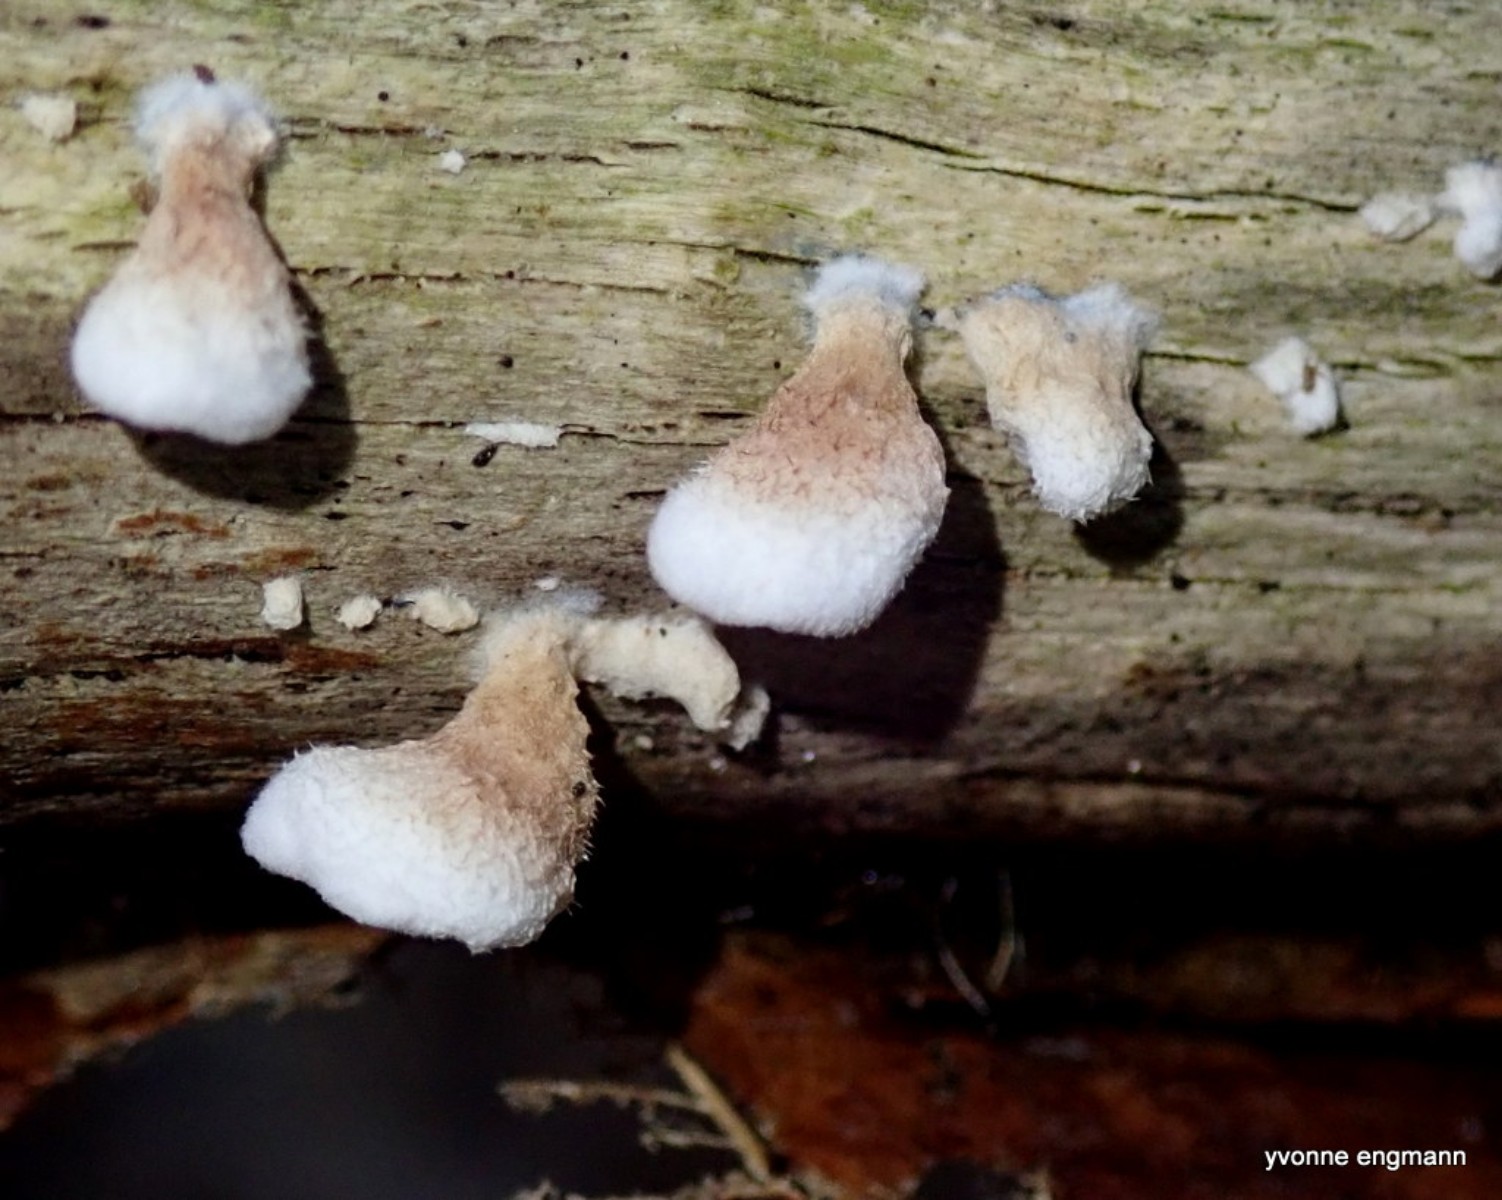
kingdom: Fungi
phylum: Basidiomycota
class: Agaricomycetes
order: Amylocorticiales
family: Amylocorticiaceae
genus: Plicaturopsis
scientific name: Plicaturopsis crispa
